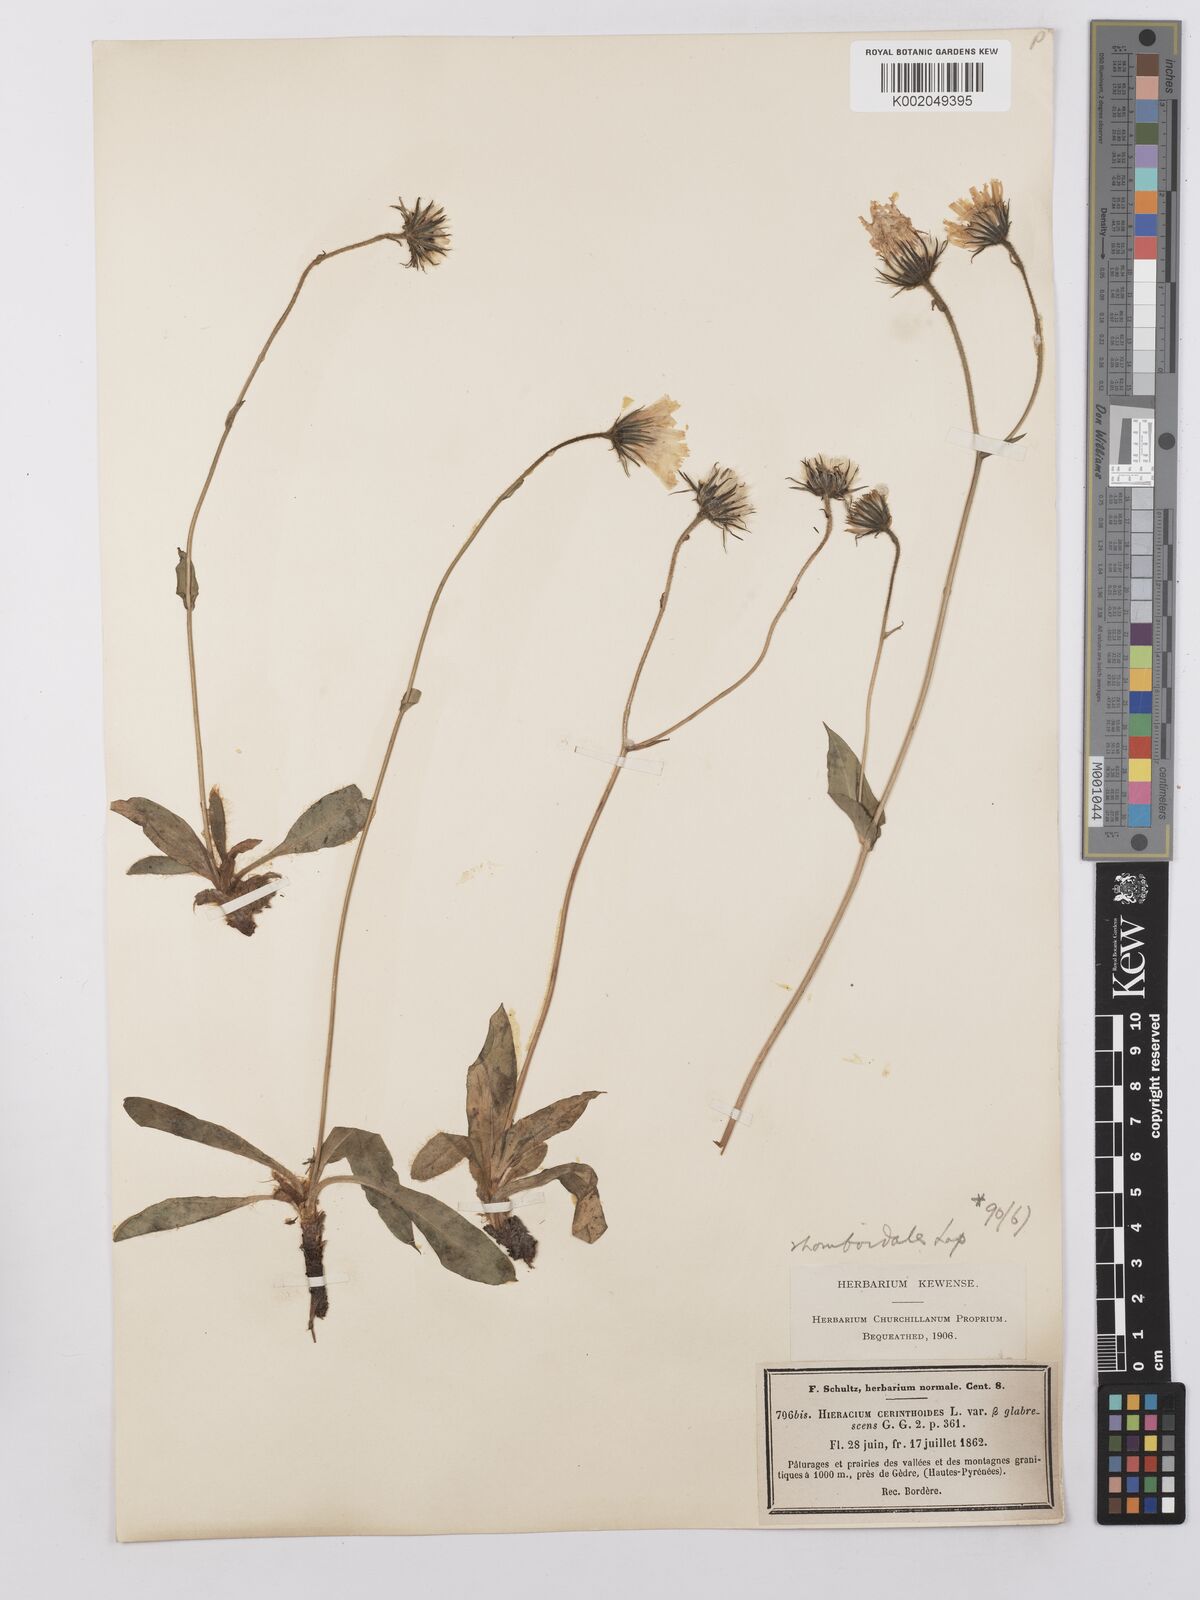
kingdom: Plantae
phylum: Tracheophyta
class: Magnoliopsida
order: Asterales
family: Asteraceae
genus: Hieracium
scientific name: Hieracium cerinthoides
